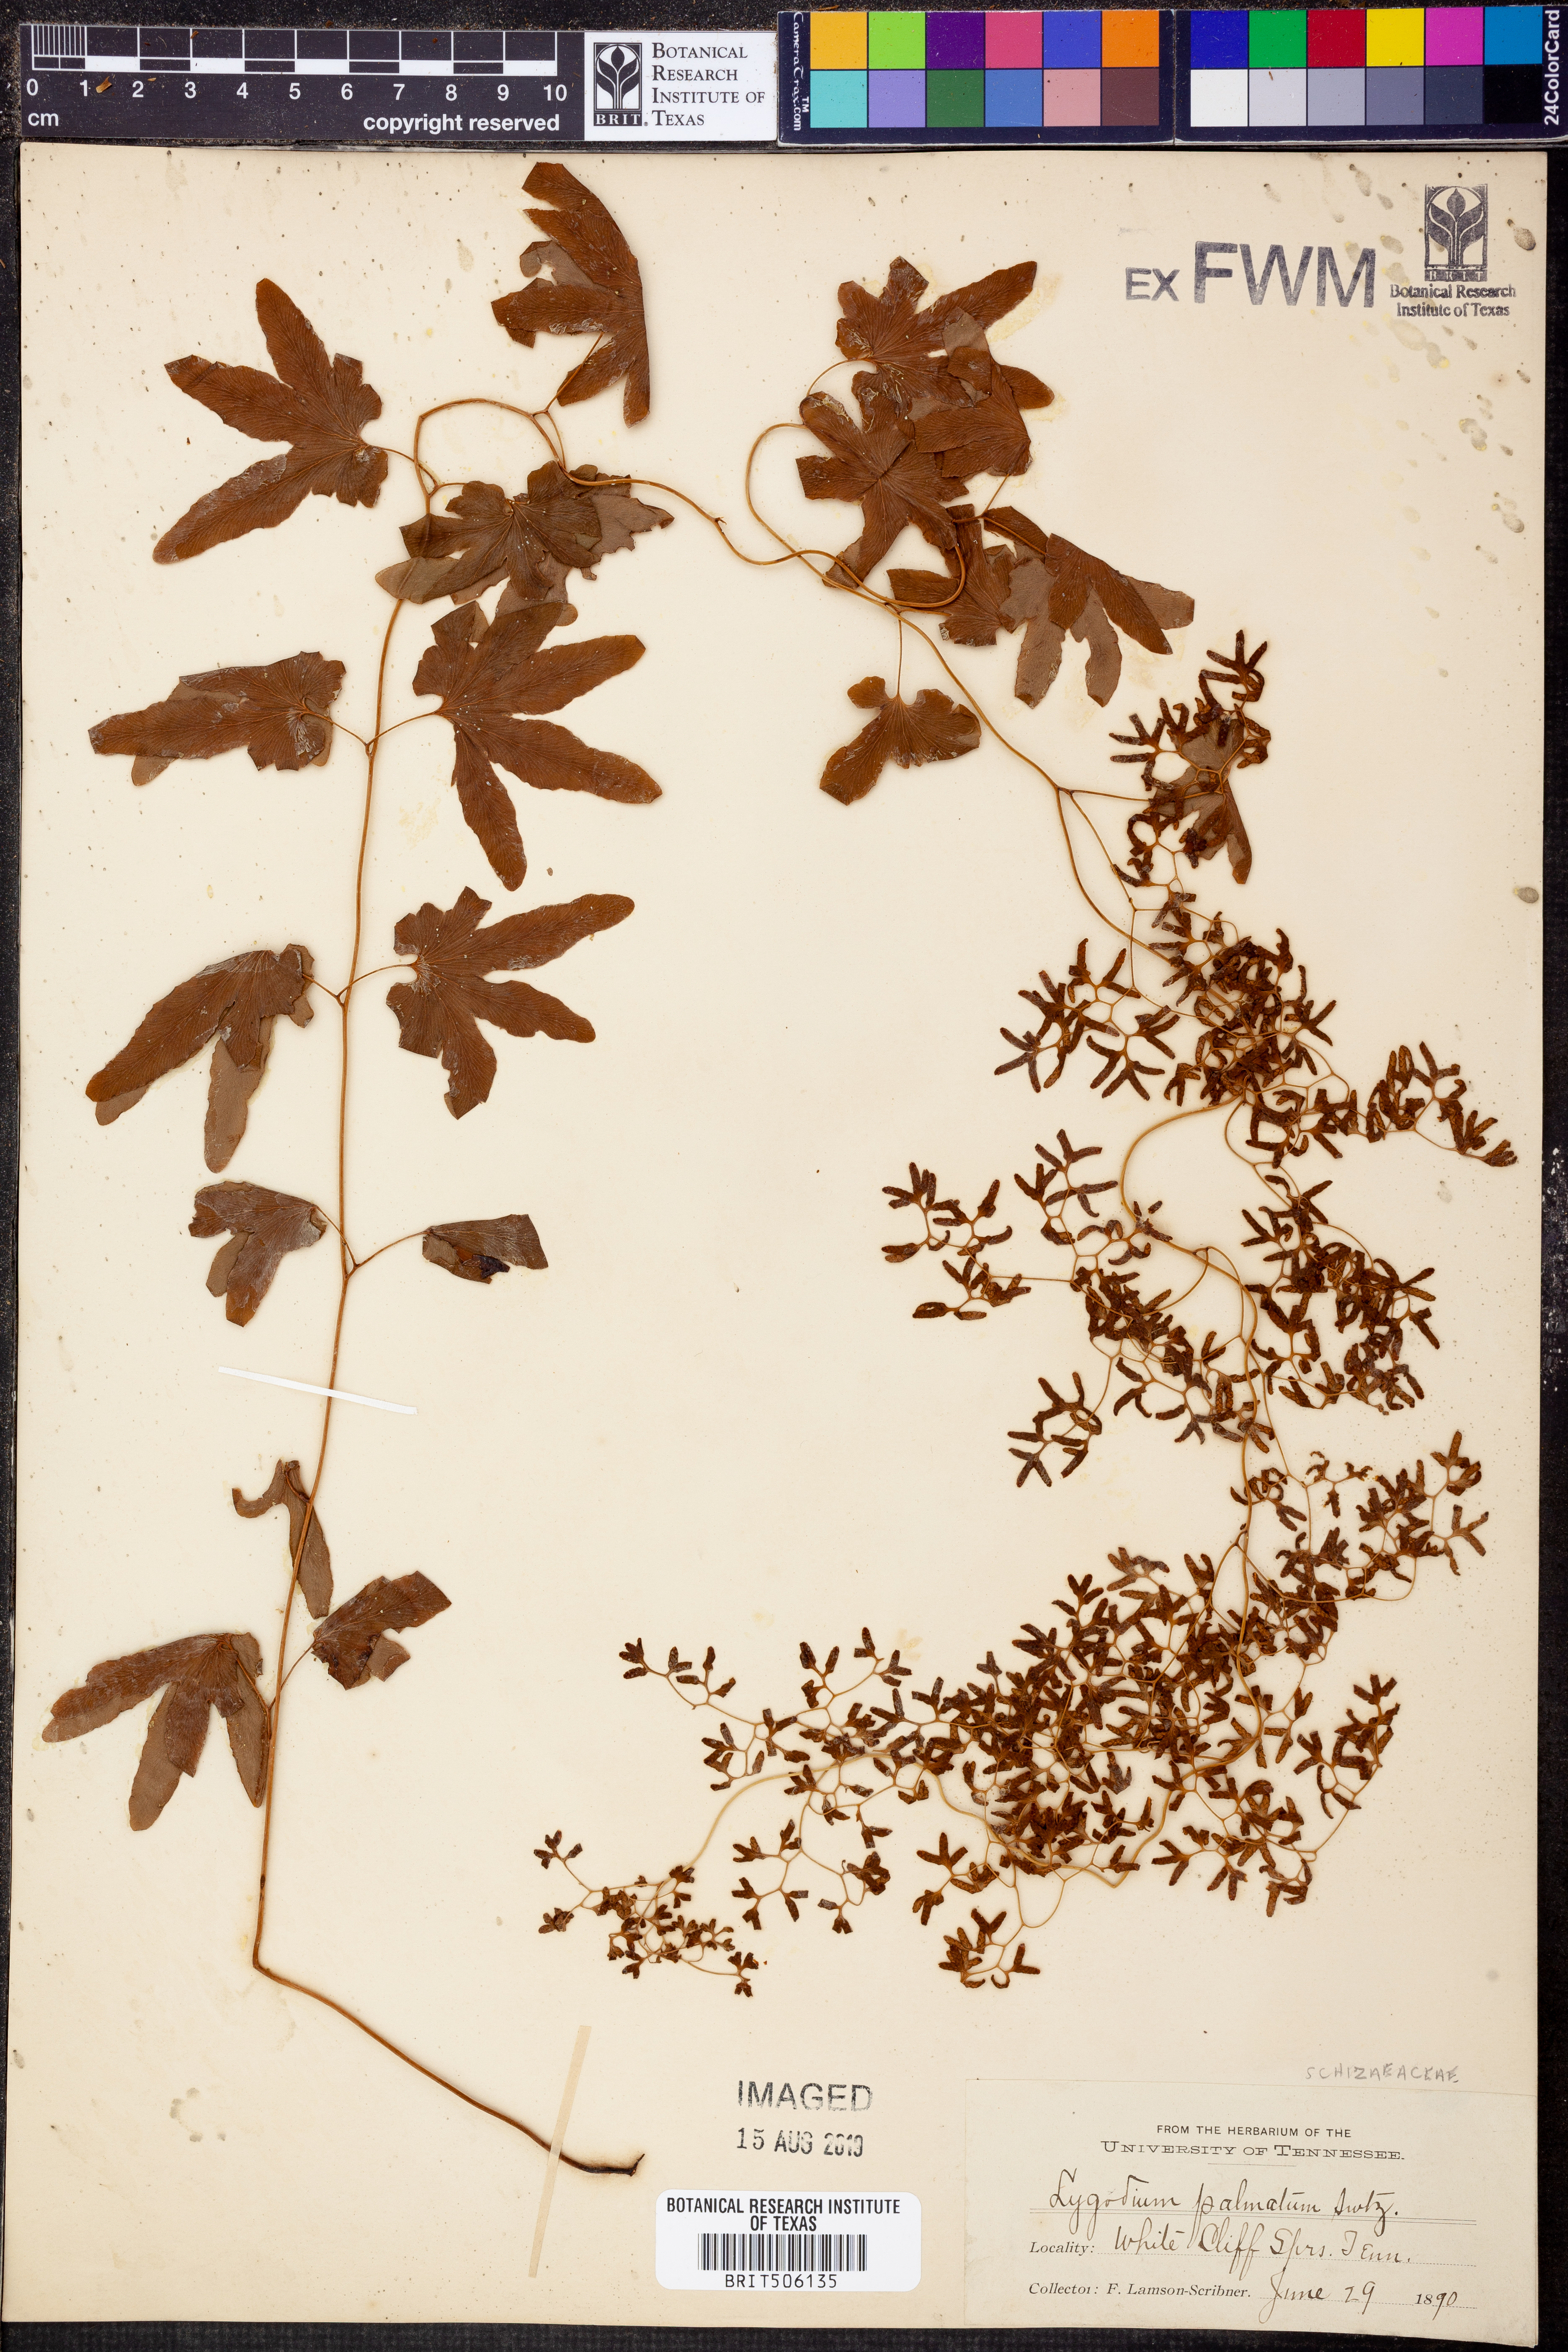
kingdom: Plantae
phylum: Tracheophyta
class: Polypodiopsida
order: Schizaeales
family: Lygodiaceae
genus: Lygodium
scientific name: Lygodium palmatum
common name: American climbing fern
